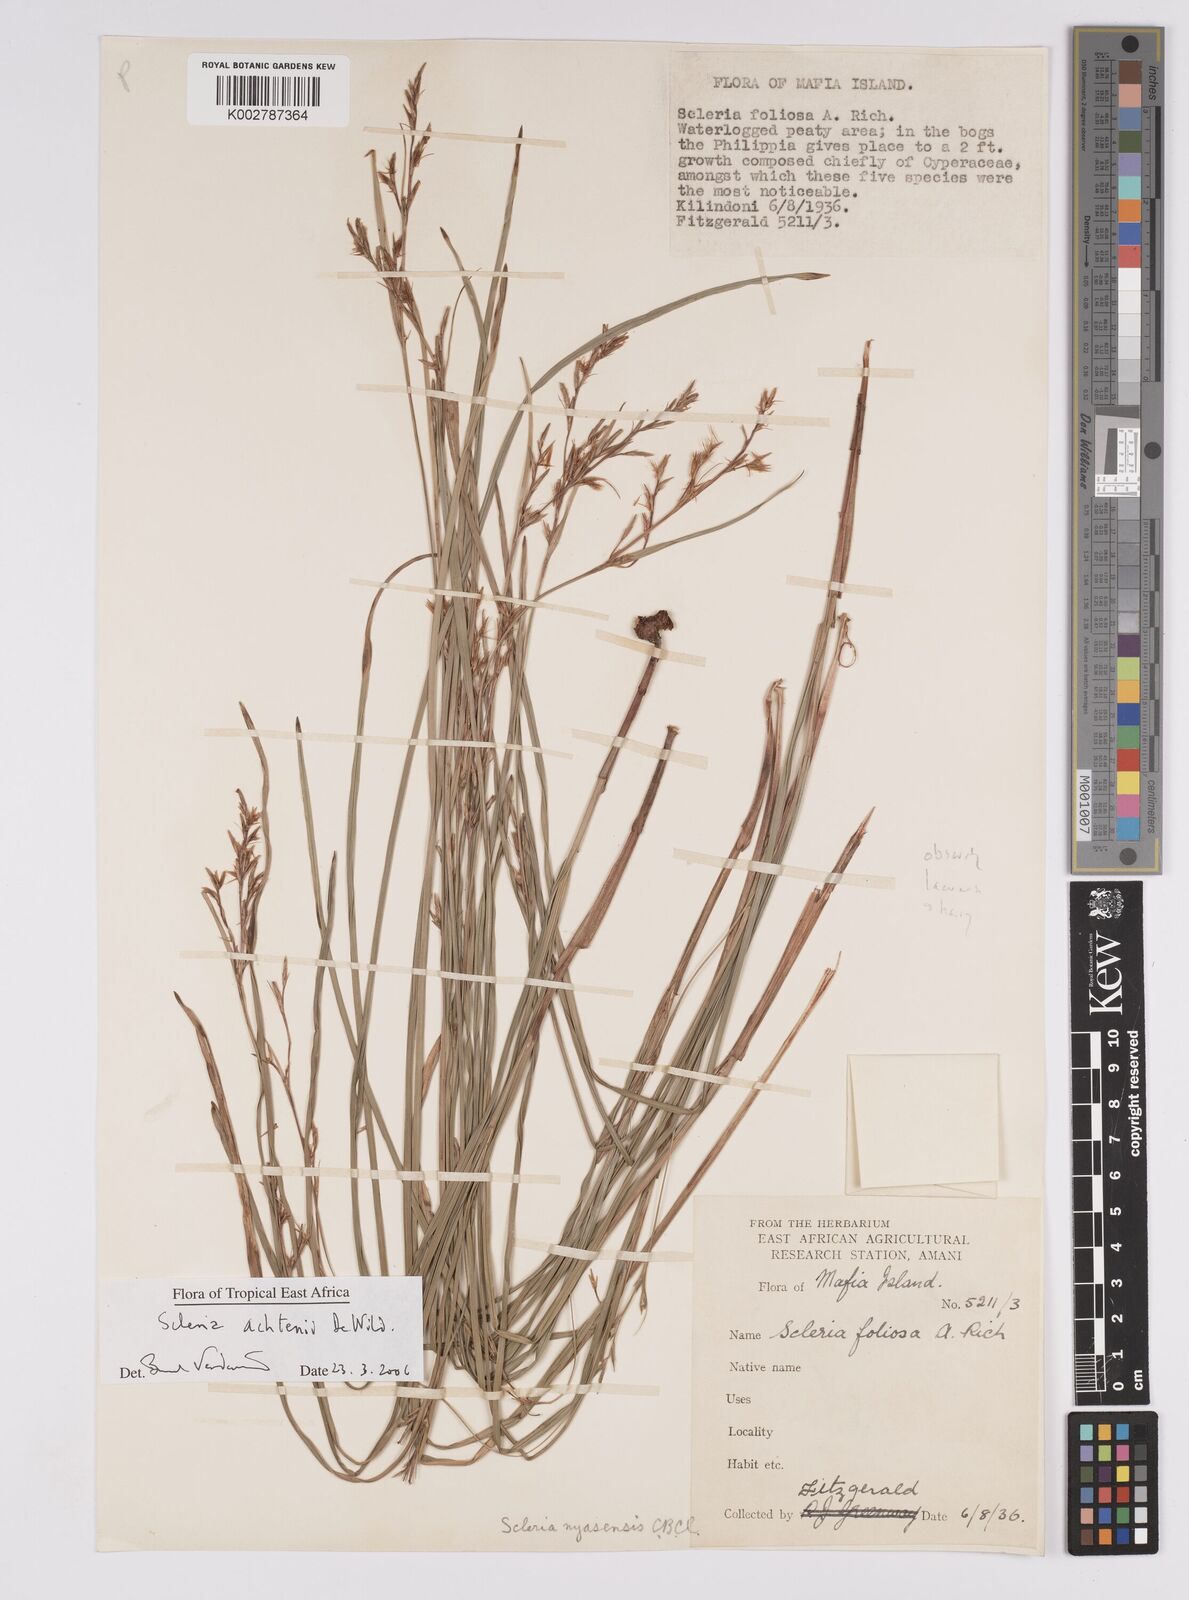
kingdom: Plantae
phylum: Tracheophyta
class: Liliopsida
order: Poales
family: Cyperaceae
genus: Scleria
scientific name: Scleria achtenii
